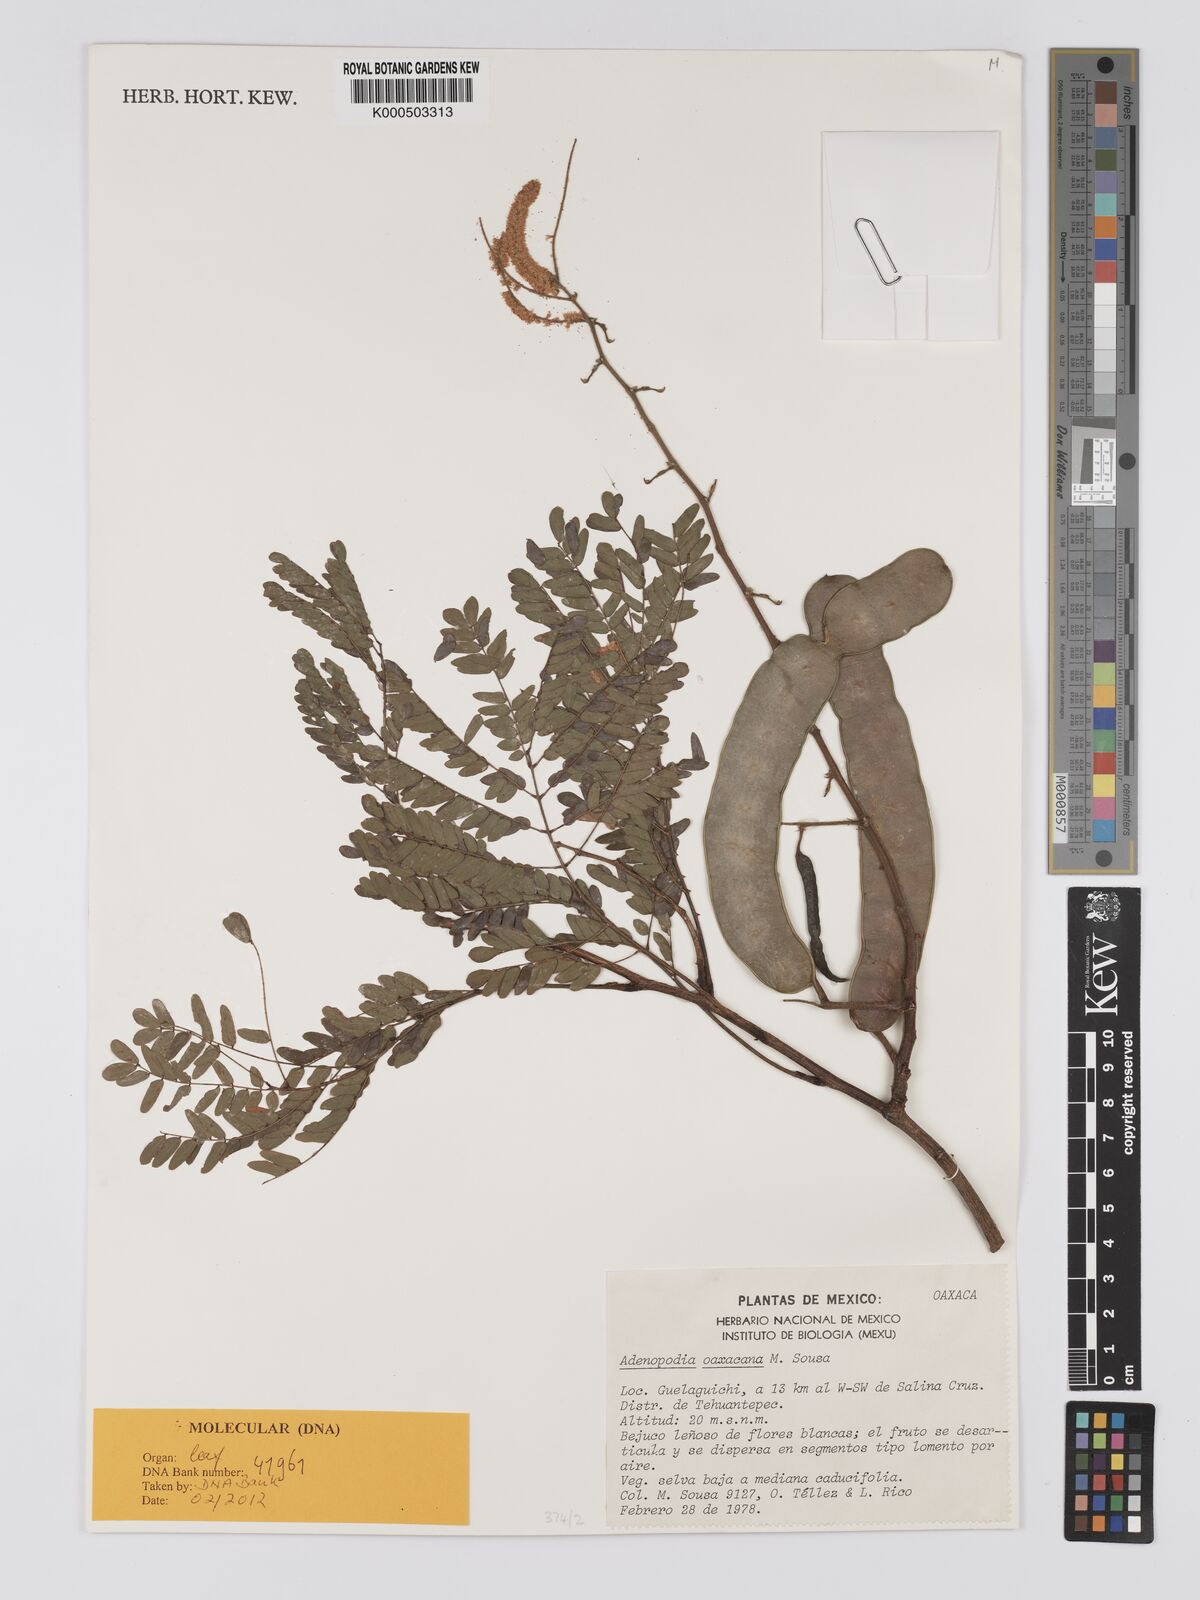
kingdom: Plantae
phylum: Tracheophyta
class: Magnoliopsida
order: Fabales
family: Fabaceae
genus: Adenopodia
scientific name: Adenopodia oaxacana
